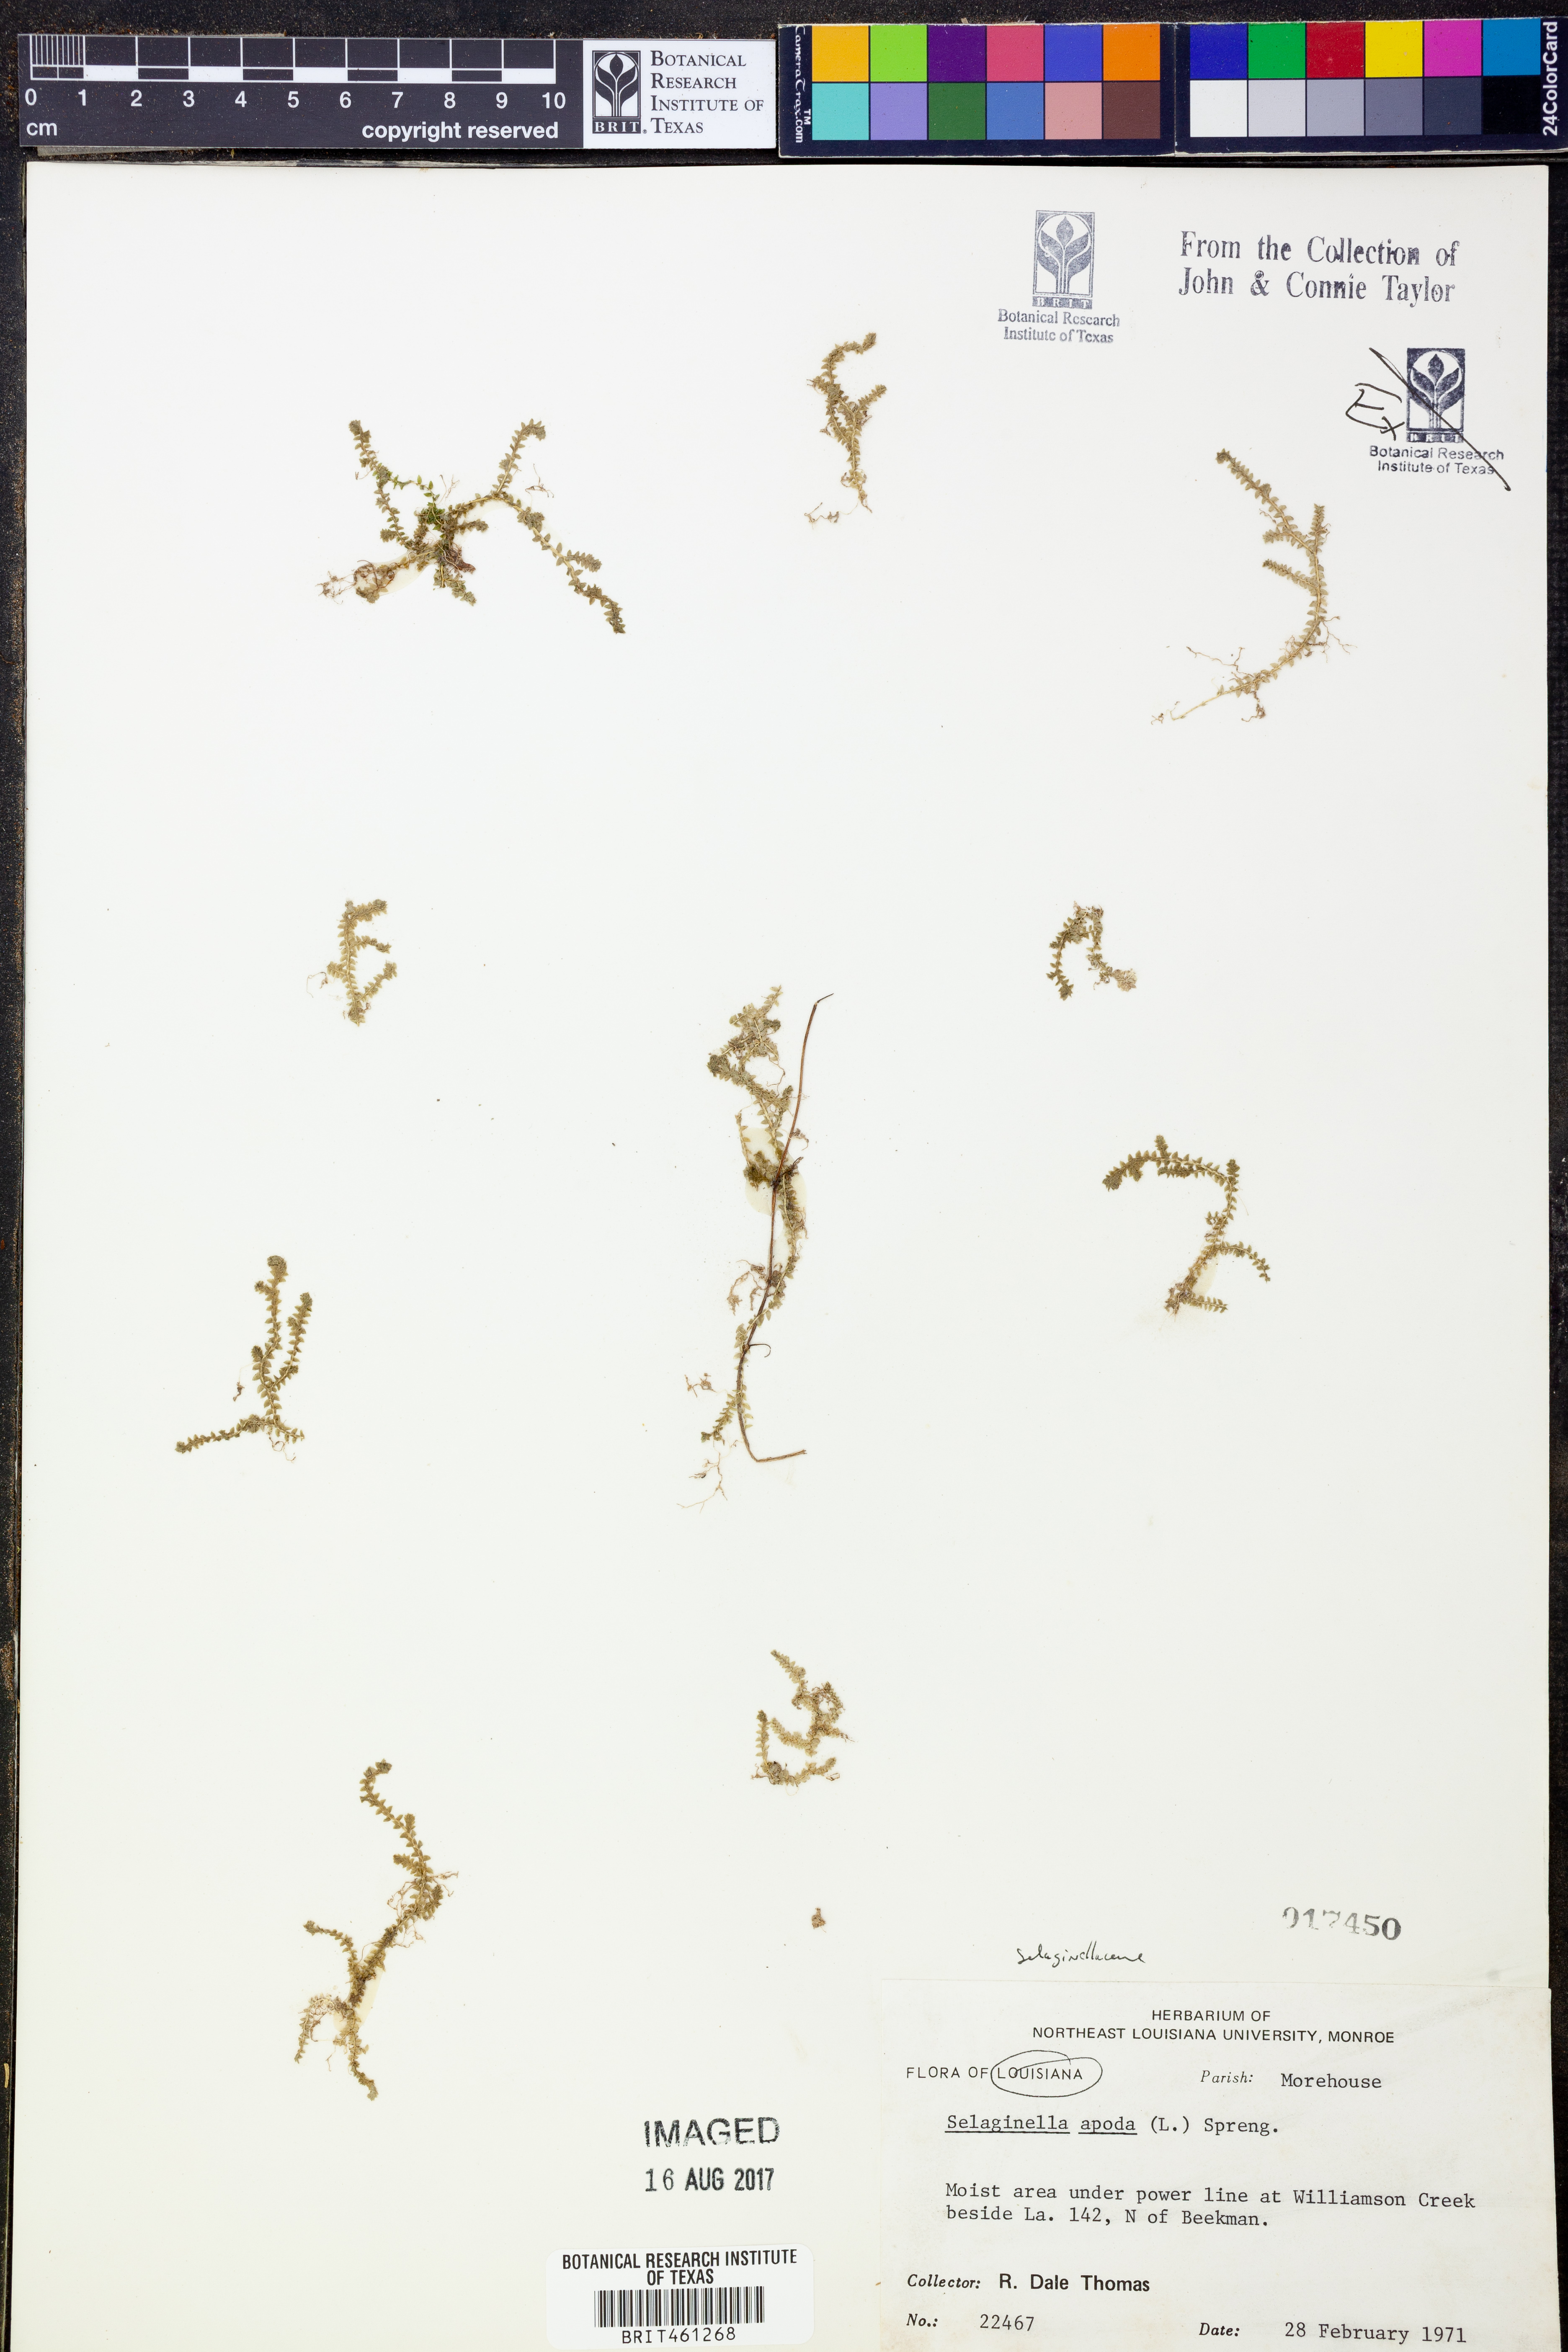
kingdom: Plantae
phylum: Tracheophyta
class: Lycopodiopsida
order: Selaginellales
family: Selaginellaceae
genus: Selaginella
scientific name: Selaginella apoda
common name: Creeping spikemoss
